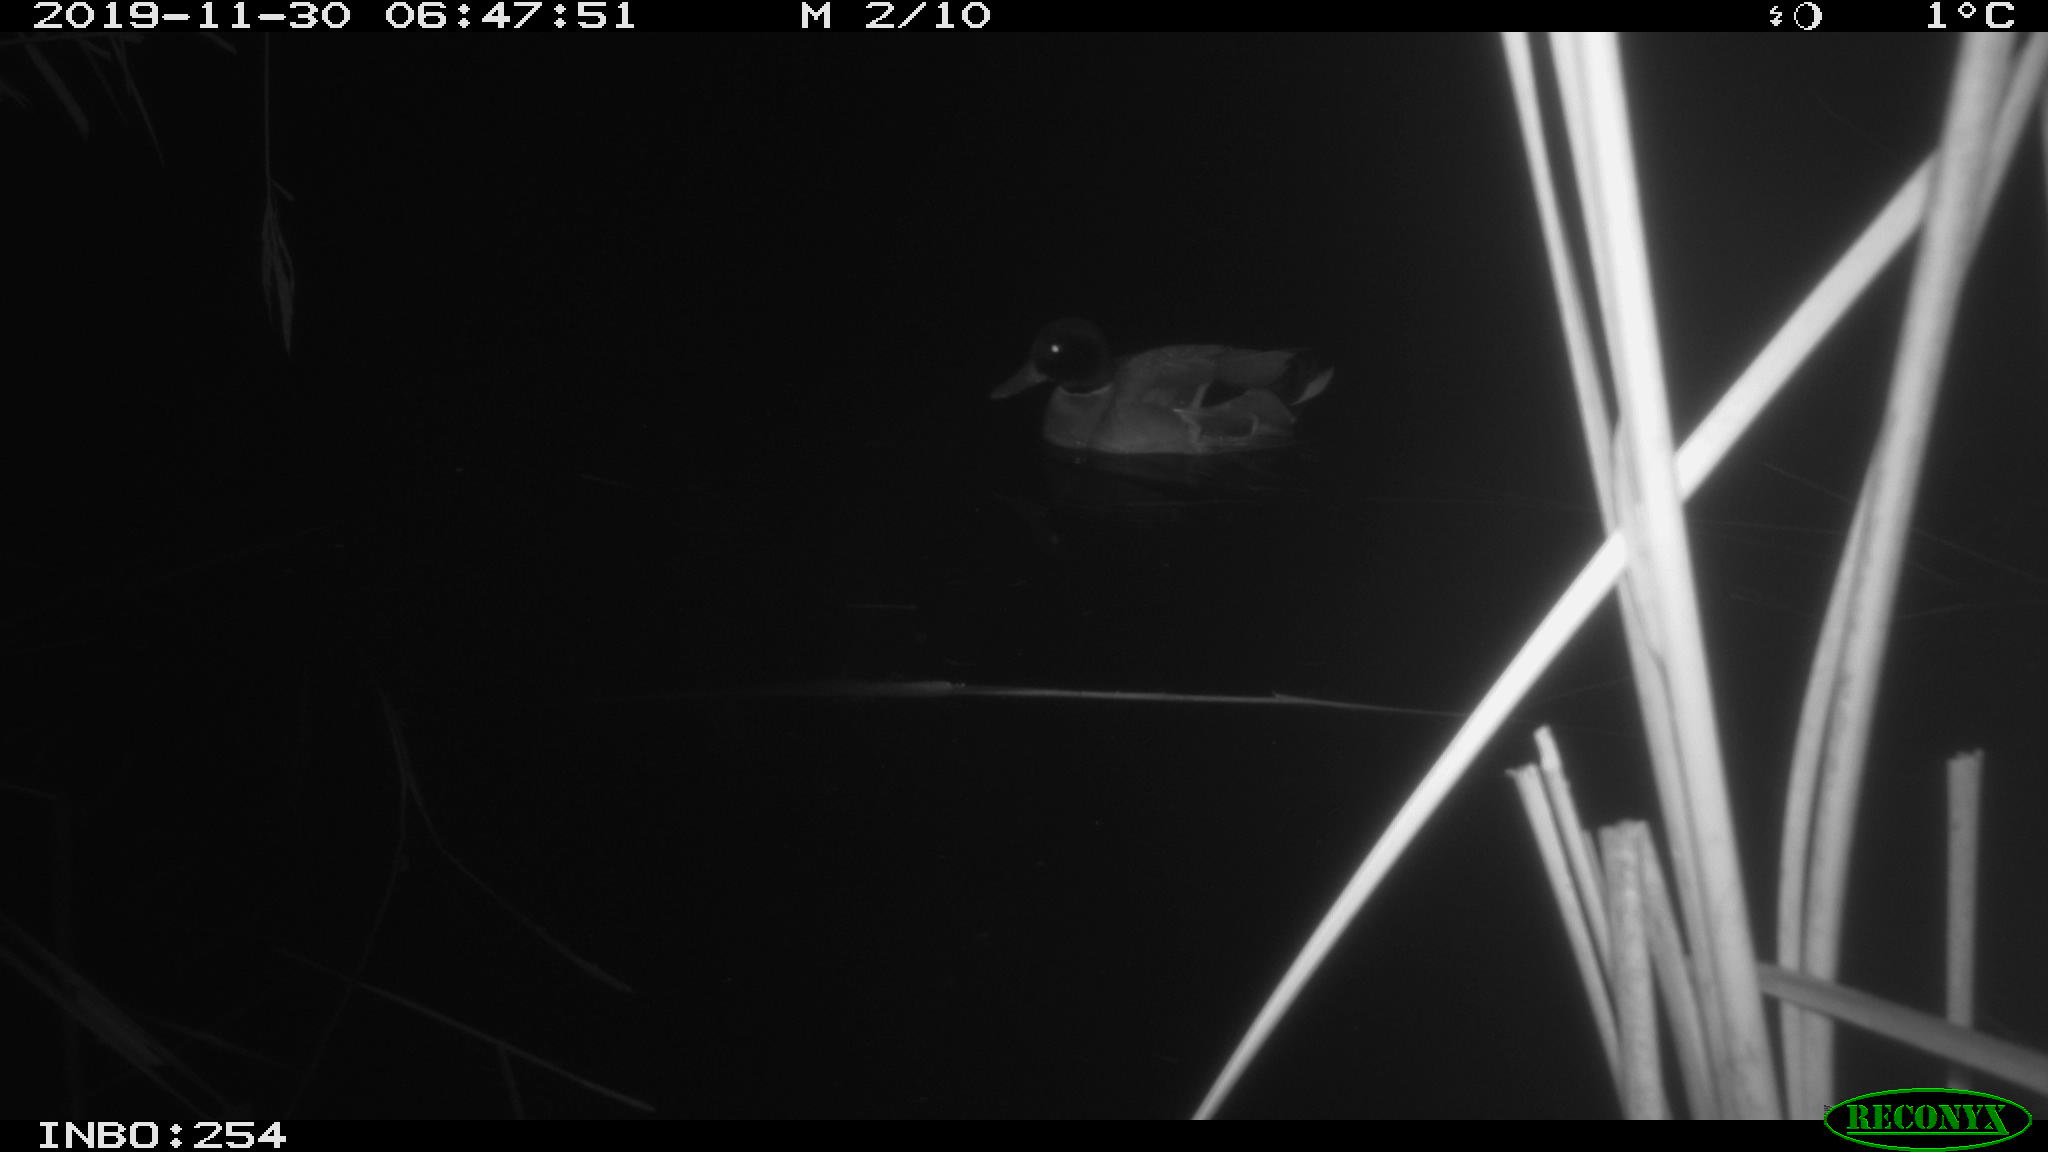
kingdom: Animalia
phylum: Chordata
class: Aves
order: Anseriformes
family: Anatidae
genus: Anas
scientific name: Anas platyrhynchos
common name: Mallard
